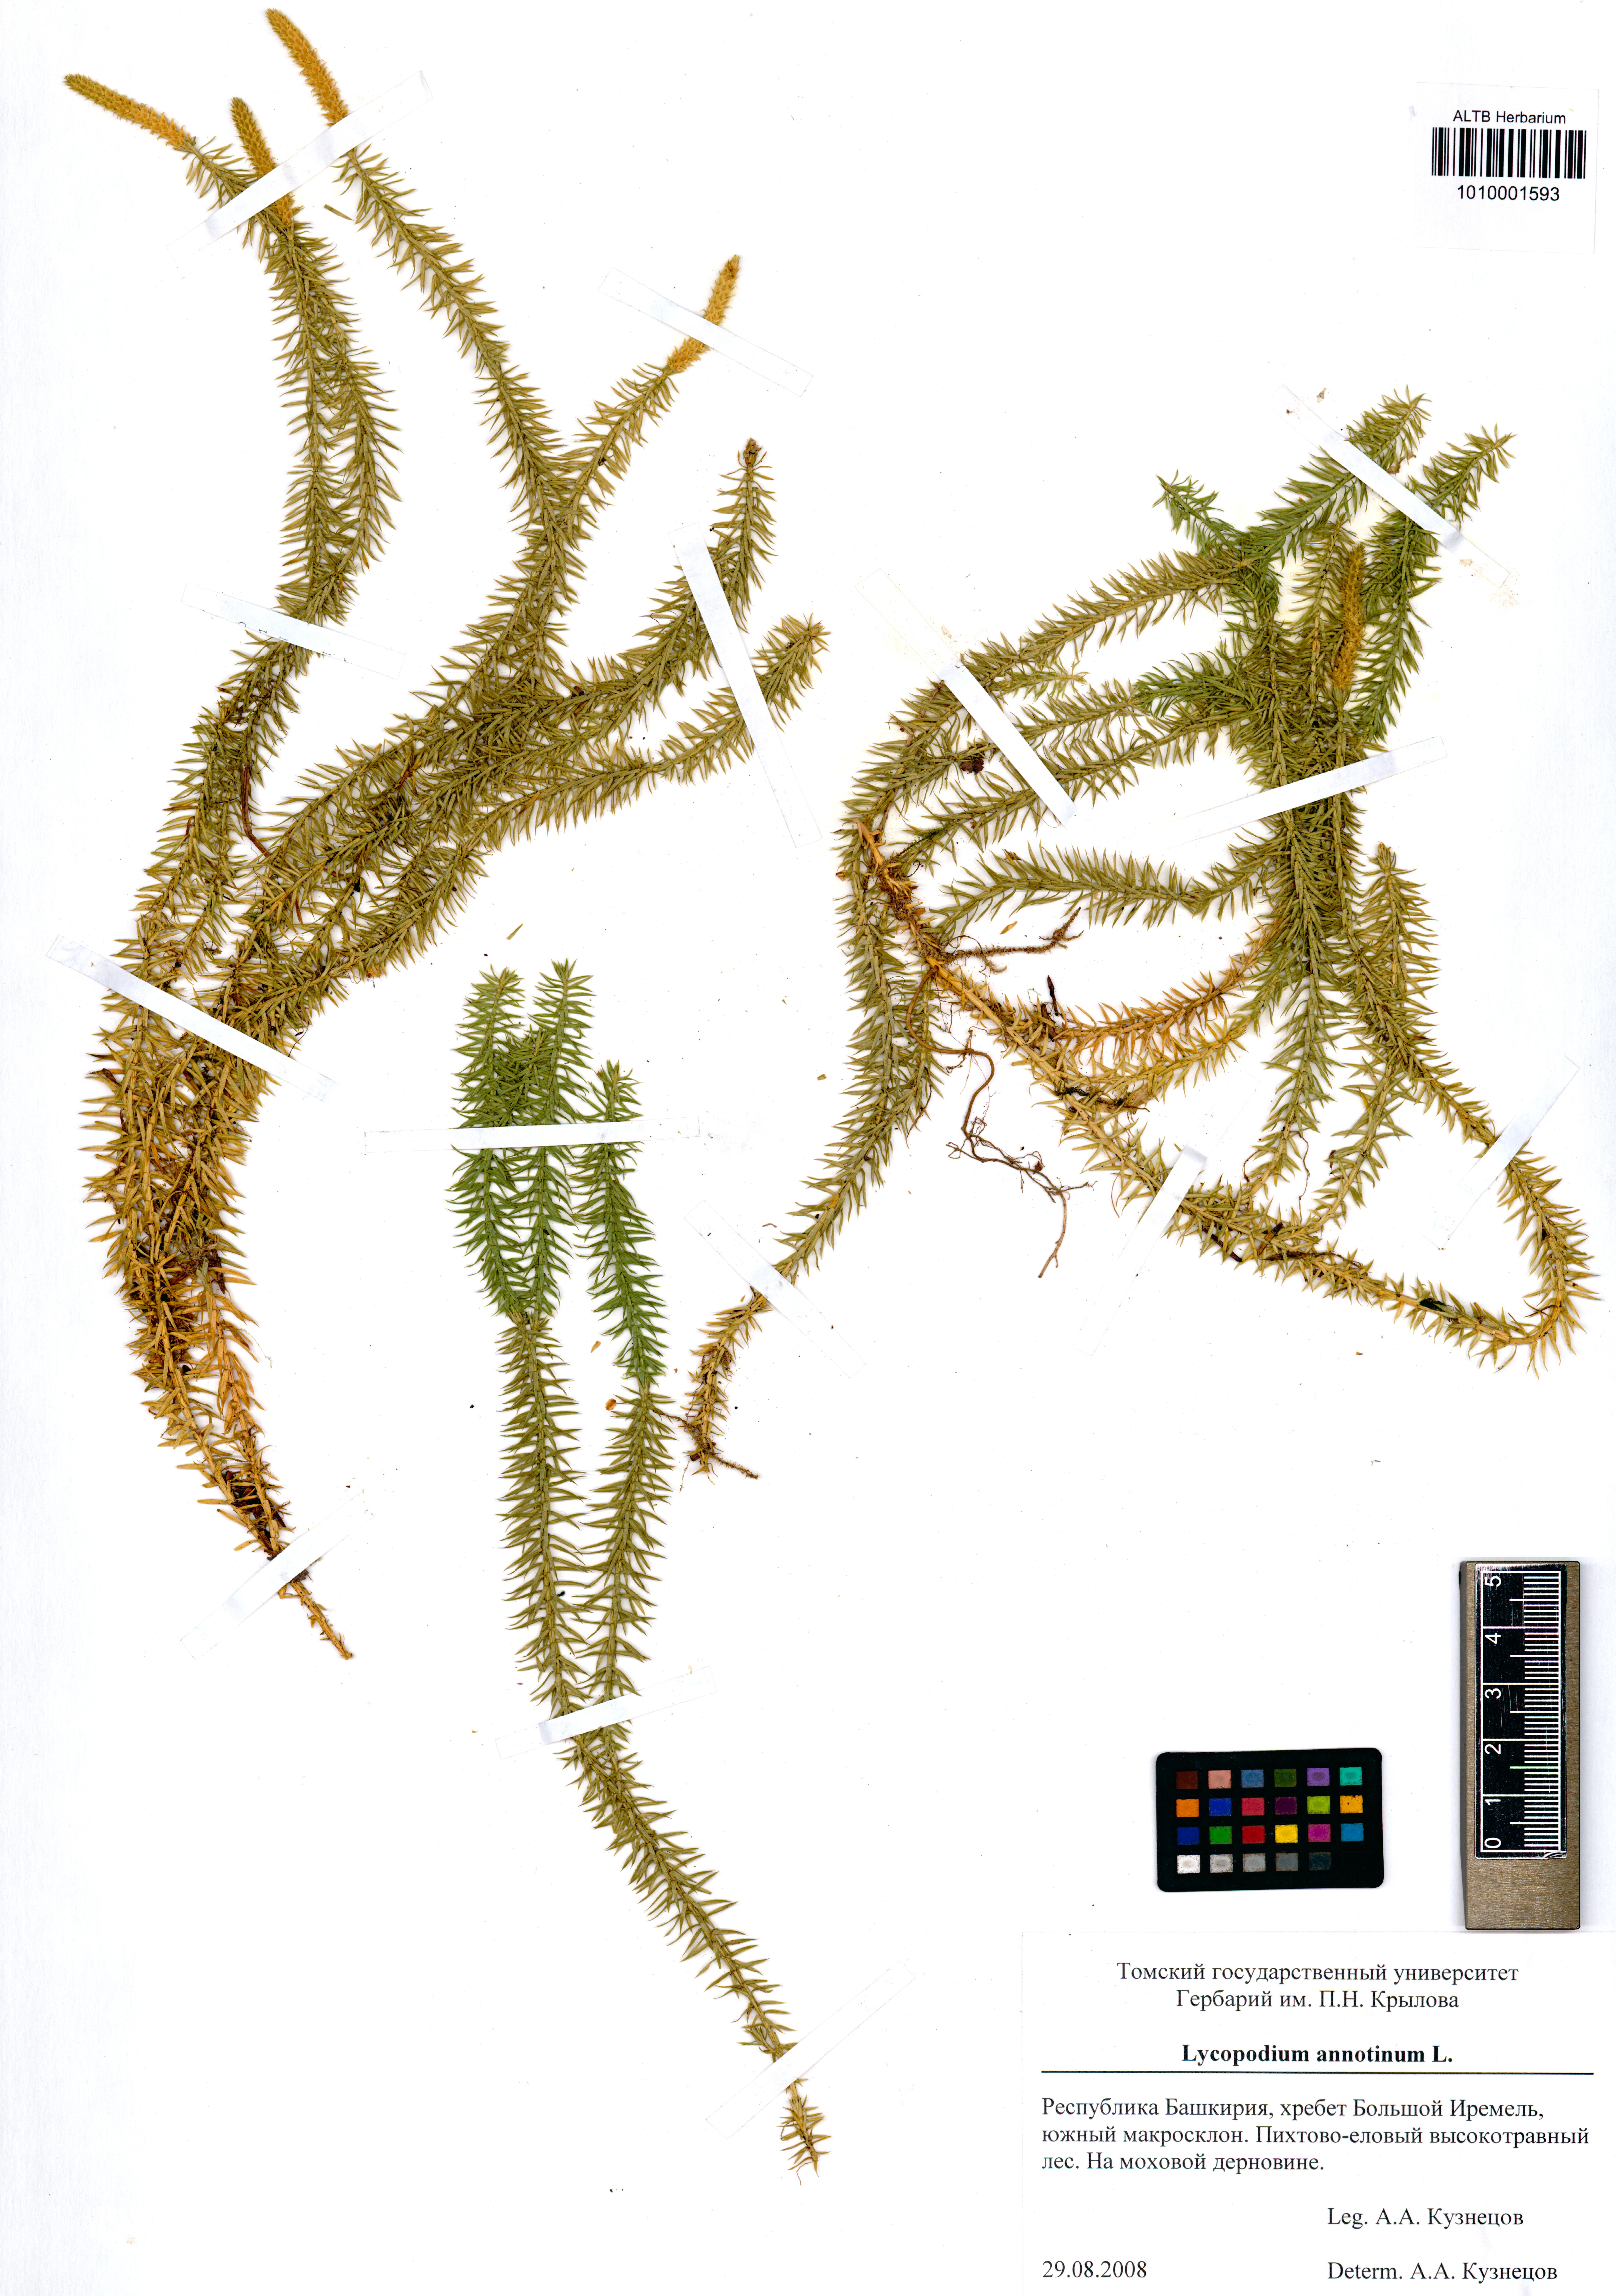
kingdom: Plantae
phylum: Tracheophyta
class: Lycopodiopsida
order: Lycopodiales
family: Lycopodiaceae
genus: Spinulum
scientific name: Spinulum annotinum
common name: Interrupted club-moss
